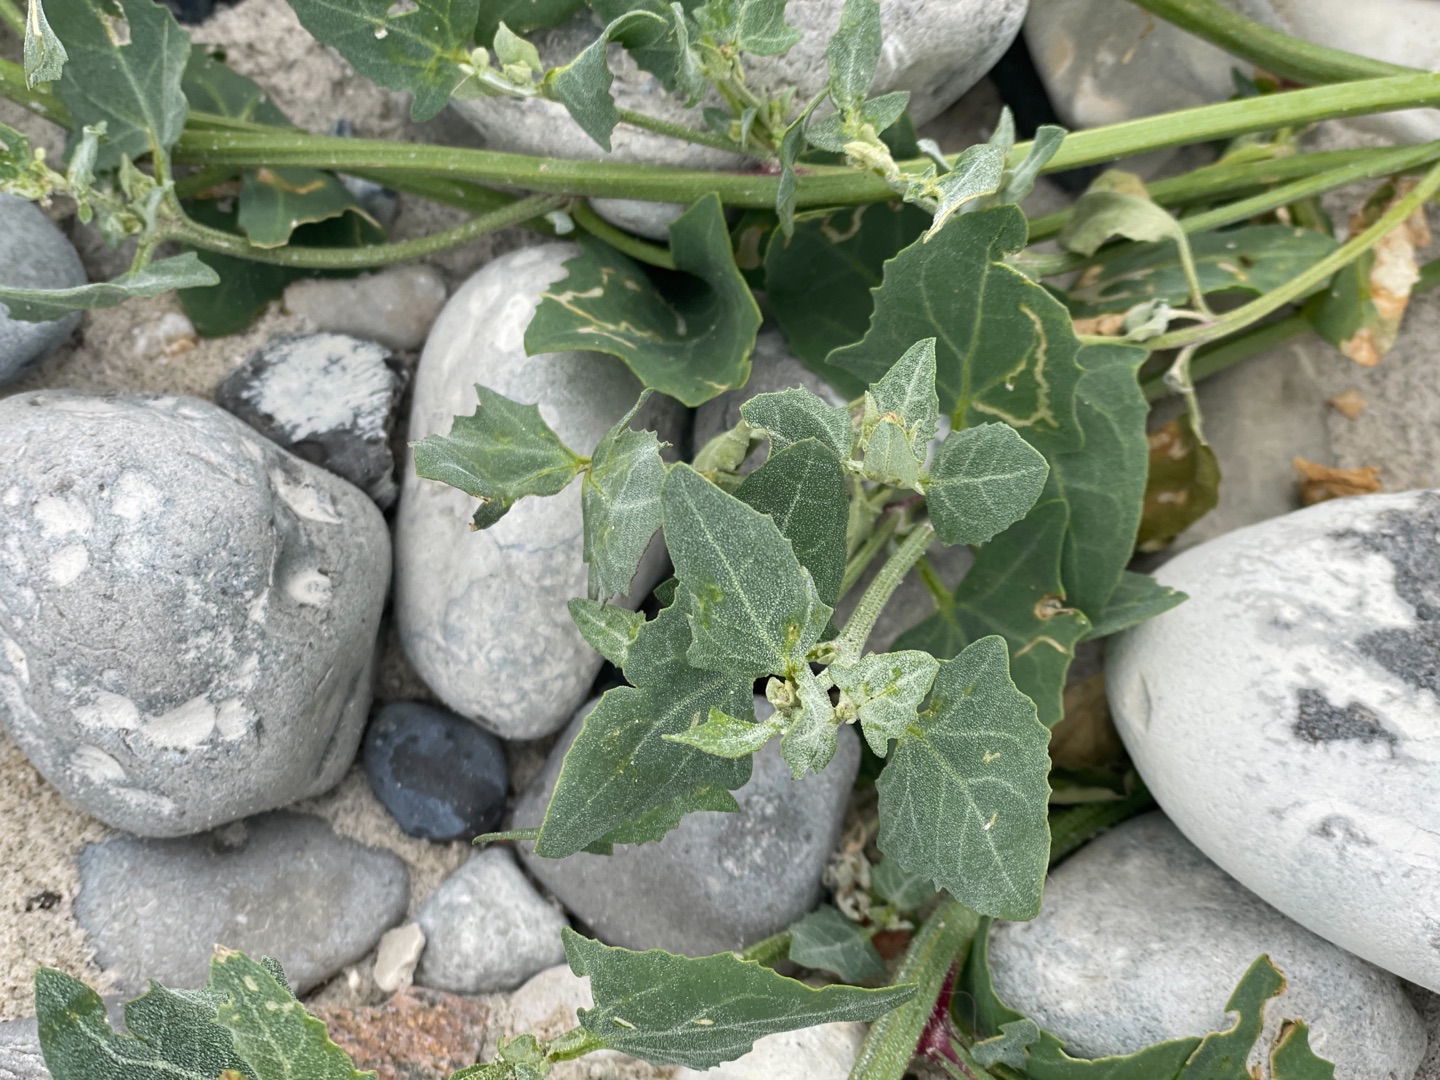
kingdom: Plantae
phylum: Tracheophyta
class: Magnoliopsida
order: Caryophyllales
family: Amaranthaceae
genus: Atriplex
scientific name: Atriplex prostrata
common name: Spyd-mælde
